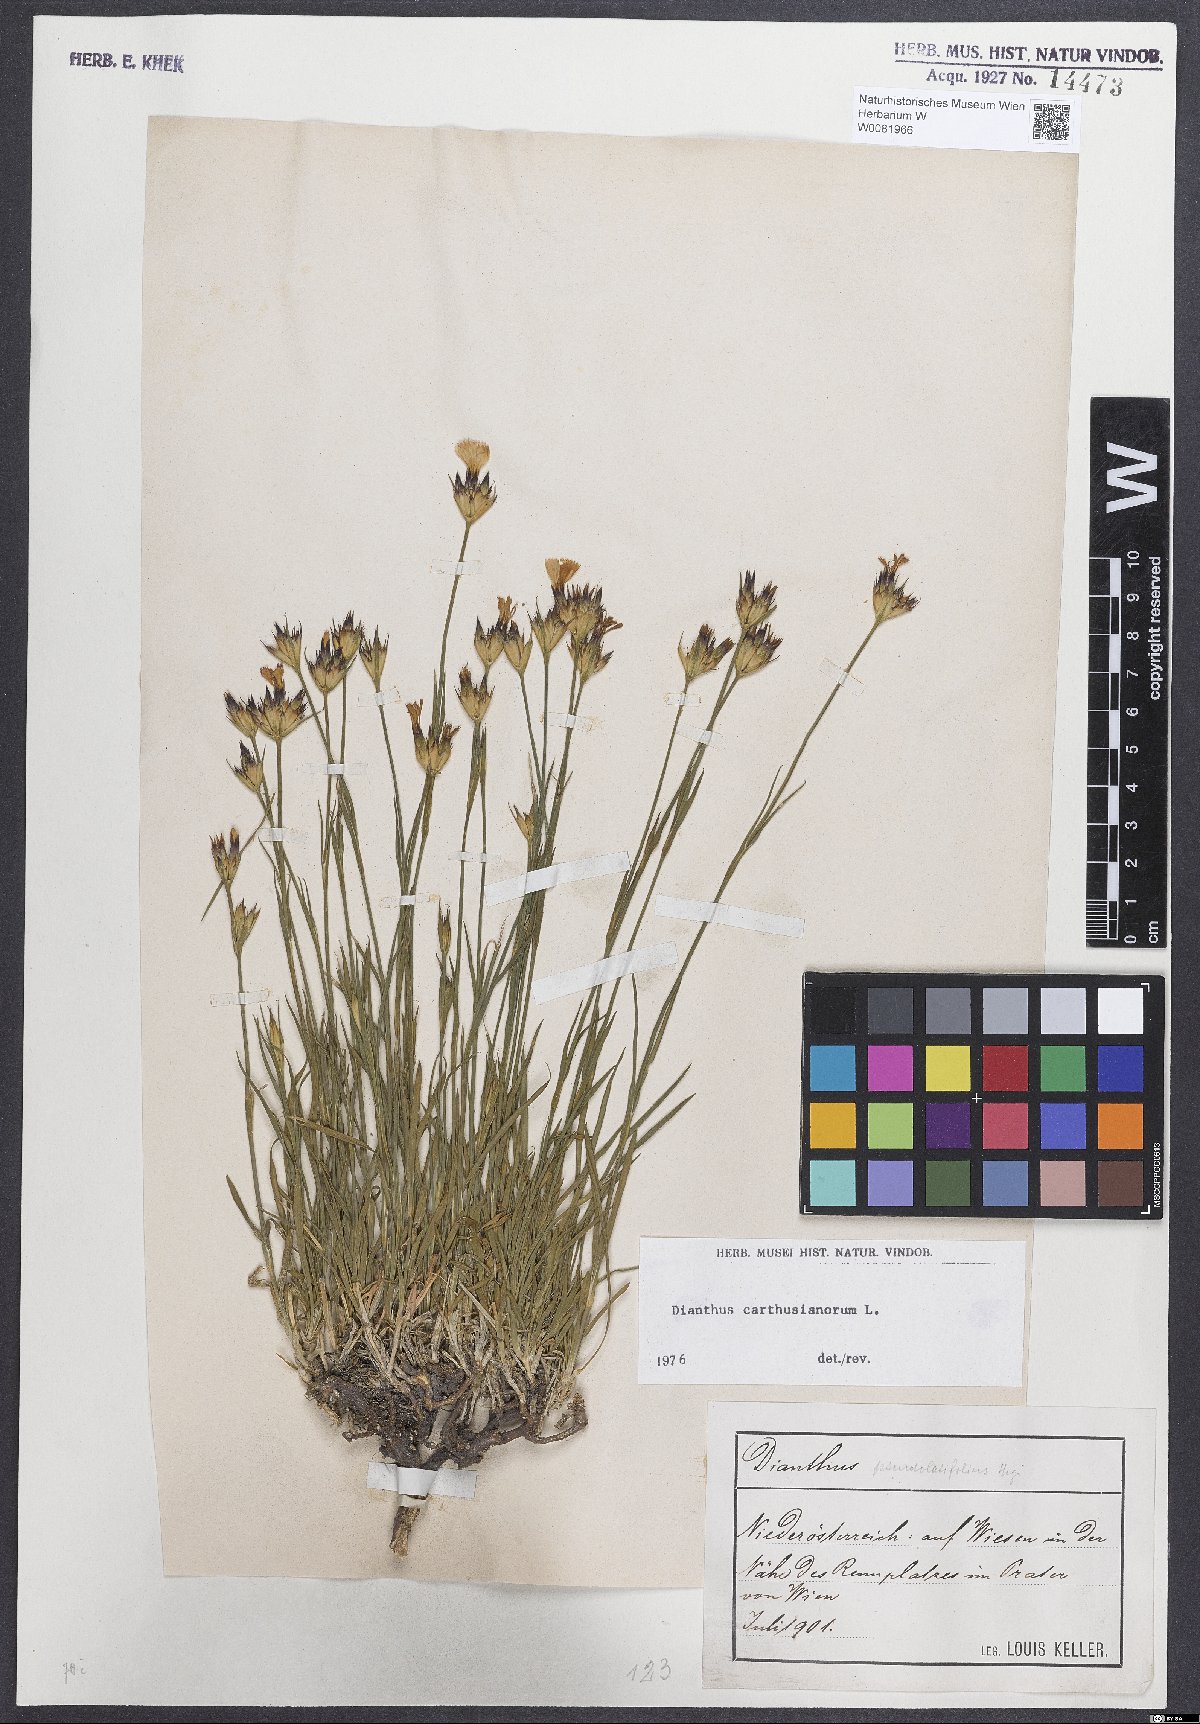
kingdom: Plantae
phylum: Tracheophyta
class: Magnoliopsida
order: Caryophyllales
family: Caryophyllaceae
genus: Dianthus
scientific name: Dianthus carthusianorum
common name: Carthusian pink
